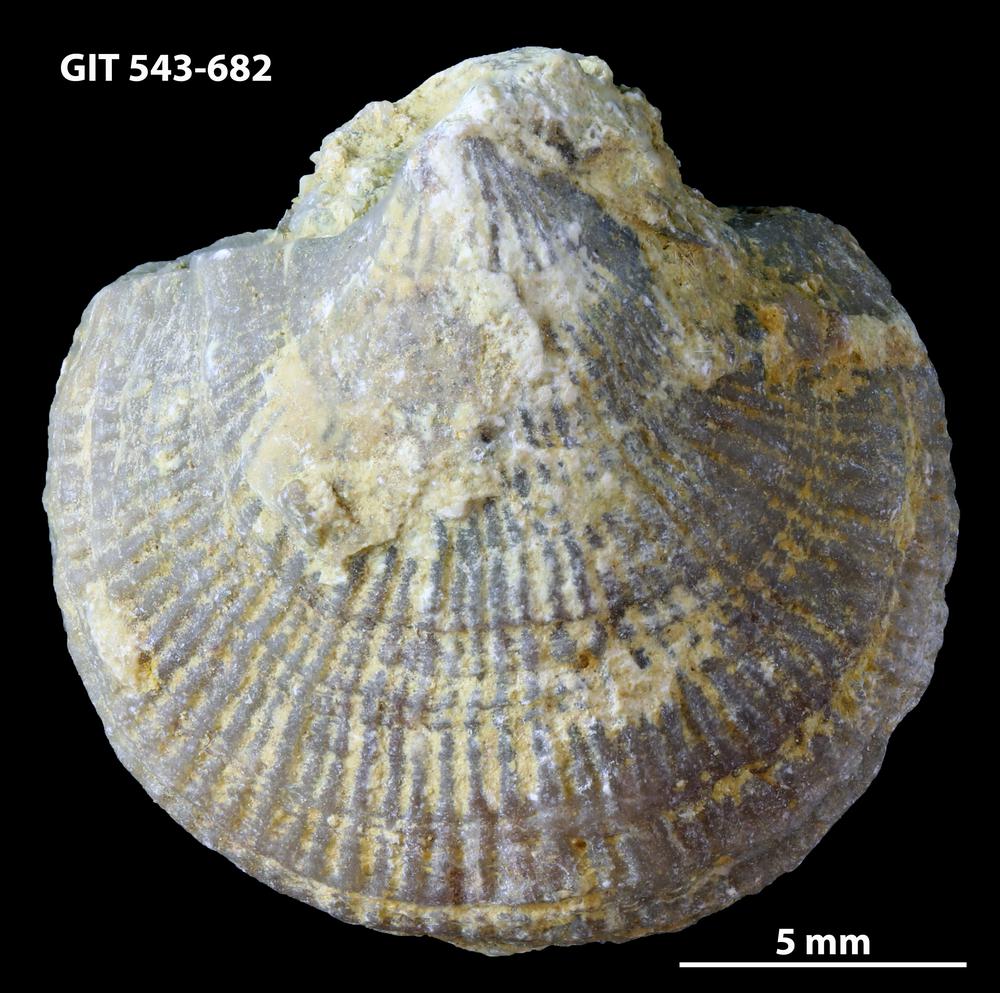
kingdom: Animalia
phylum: Brachiopoda
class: Rhynchonellata
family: Clitambonitidae
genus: Vellamo
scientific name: Vellamo oandoensis
